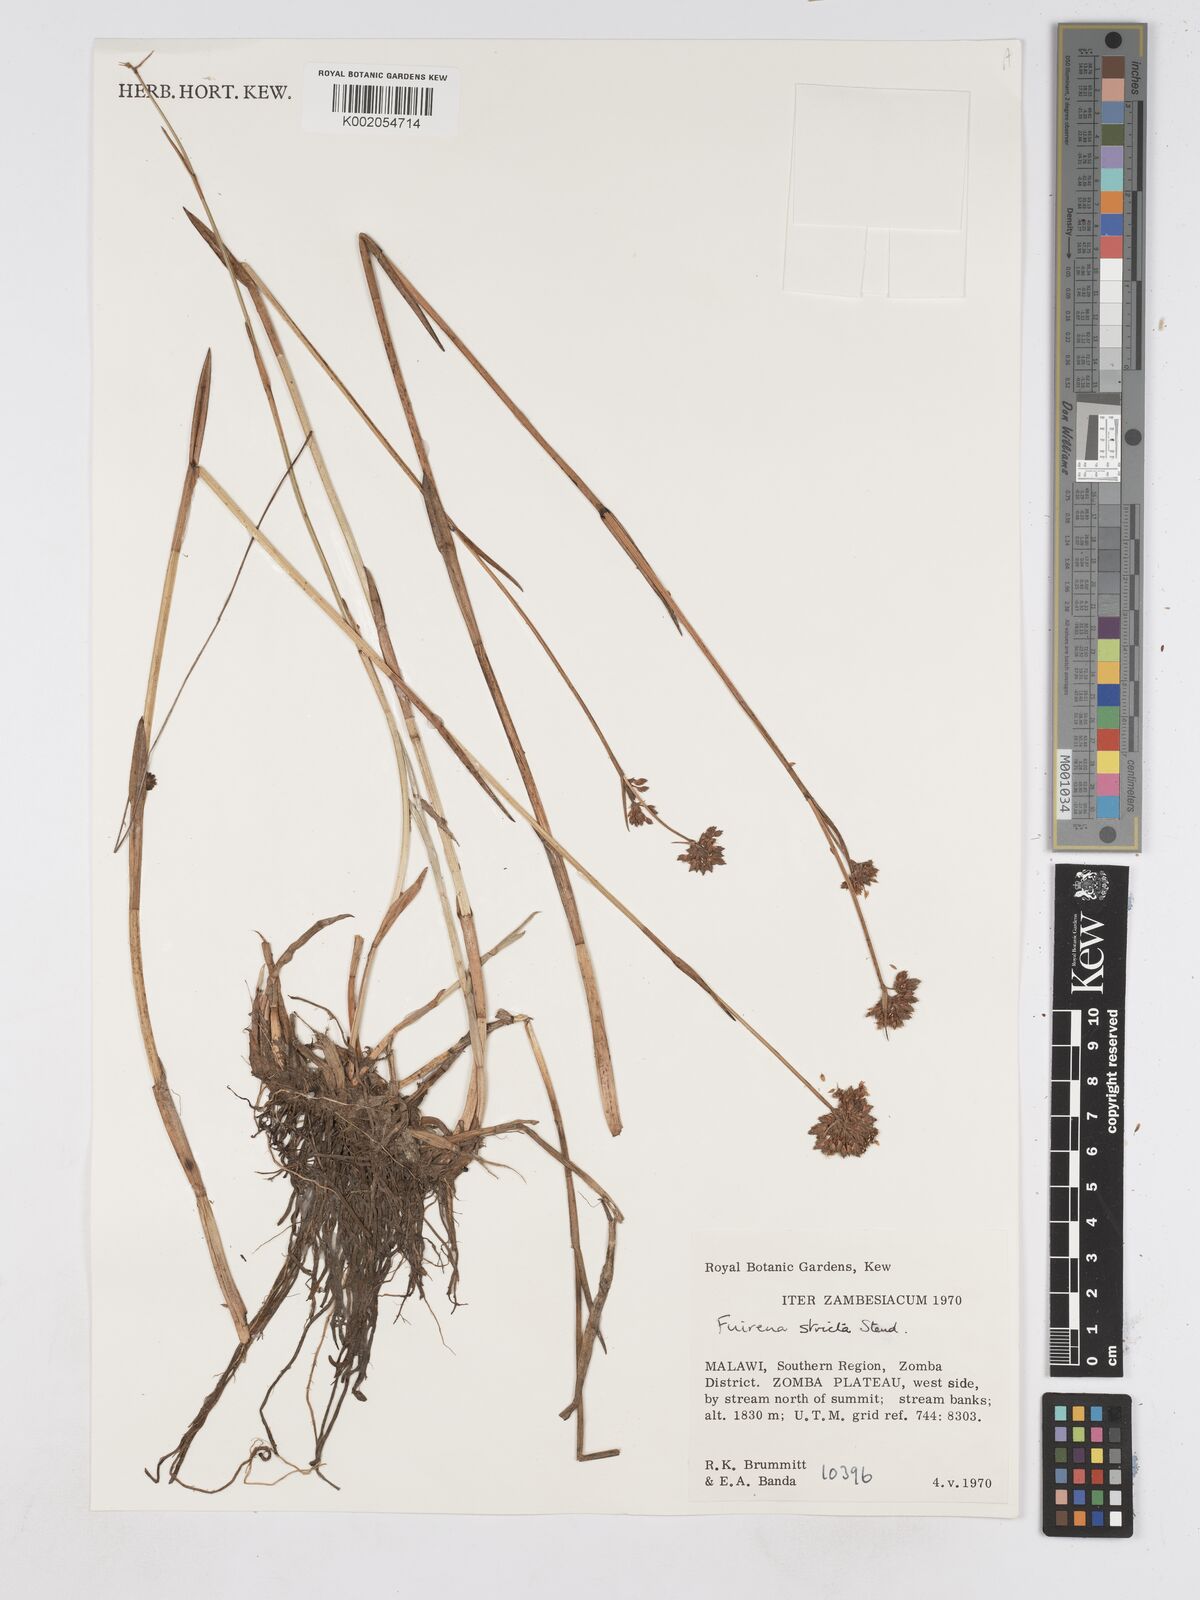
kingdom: Plantae
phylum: Tracheophyta
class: Liliopsida
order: Poales
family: Cyperaceae
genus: Fuirena
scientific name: Fuirena stricta
